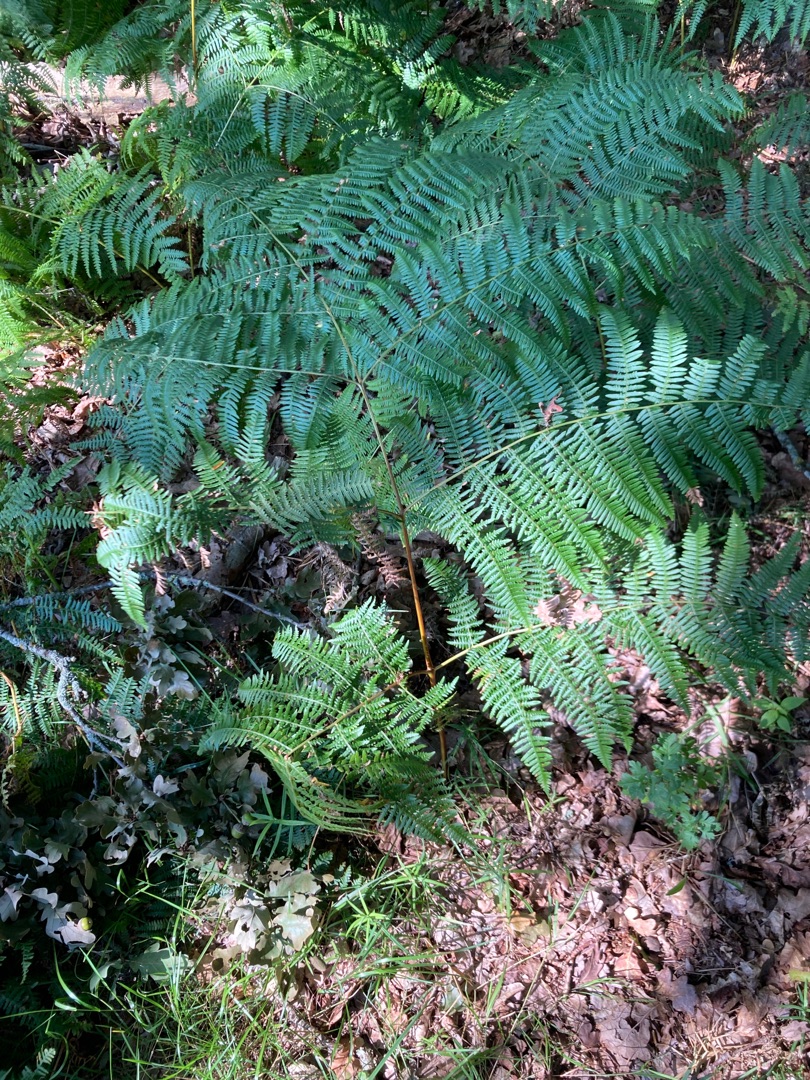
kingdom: Plantae
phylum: Tracheophyta
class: Polypodiopsida
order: Polypodiales
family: Dennstaedtiaceae
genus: Pteridium
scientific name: Pteridium aquilinum
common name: Ørnebregne
